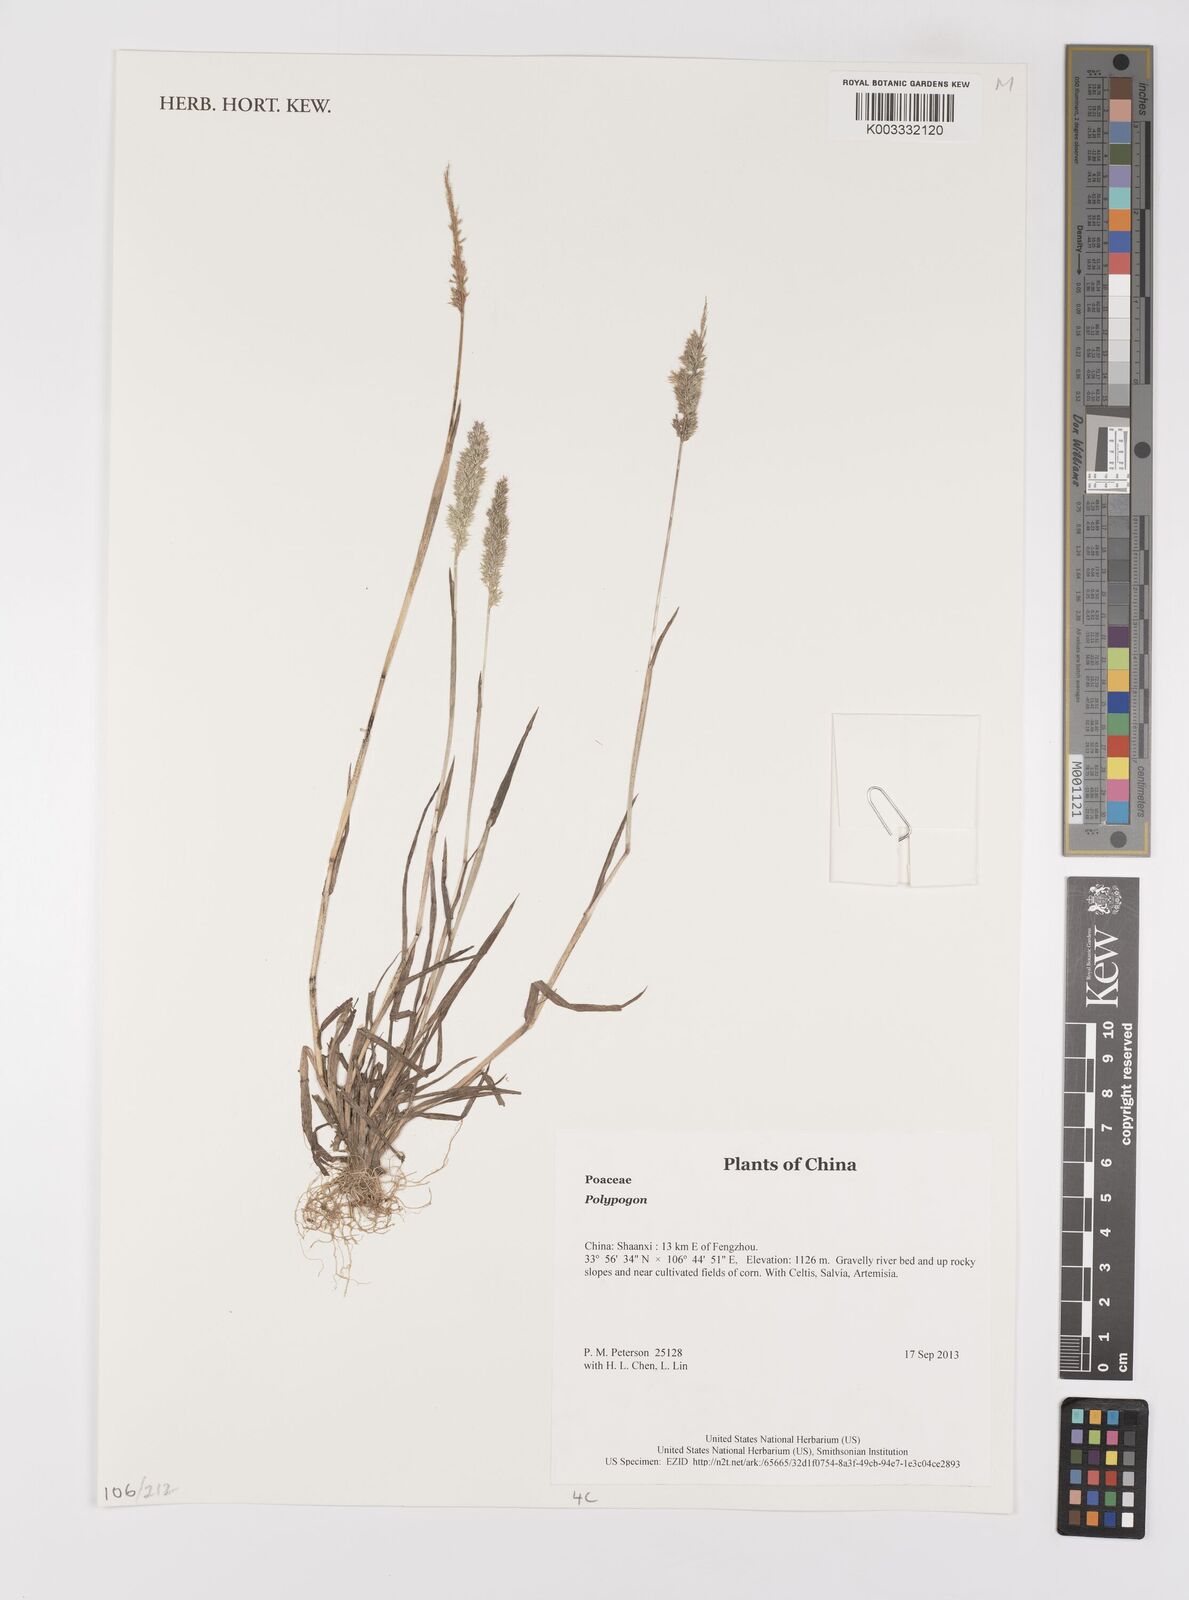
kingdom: Plantae
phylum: Tracheophyta
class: Liliopsida
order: Poales
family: Poaceae
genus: Polypogon
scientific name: Polypogon
